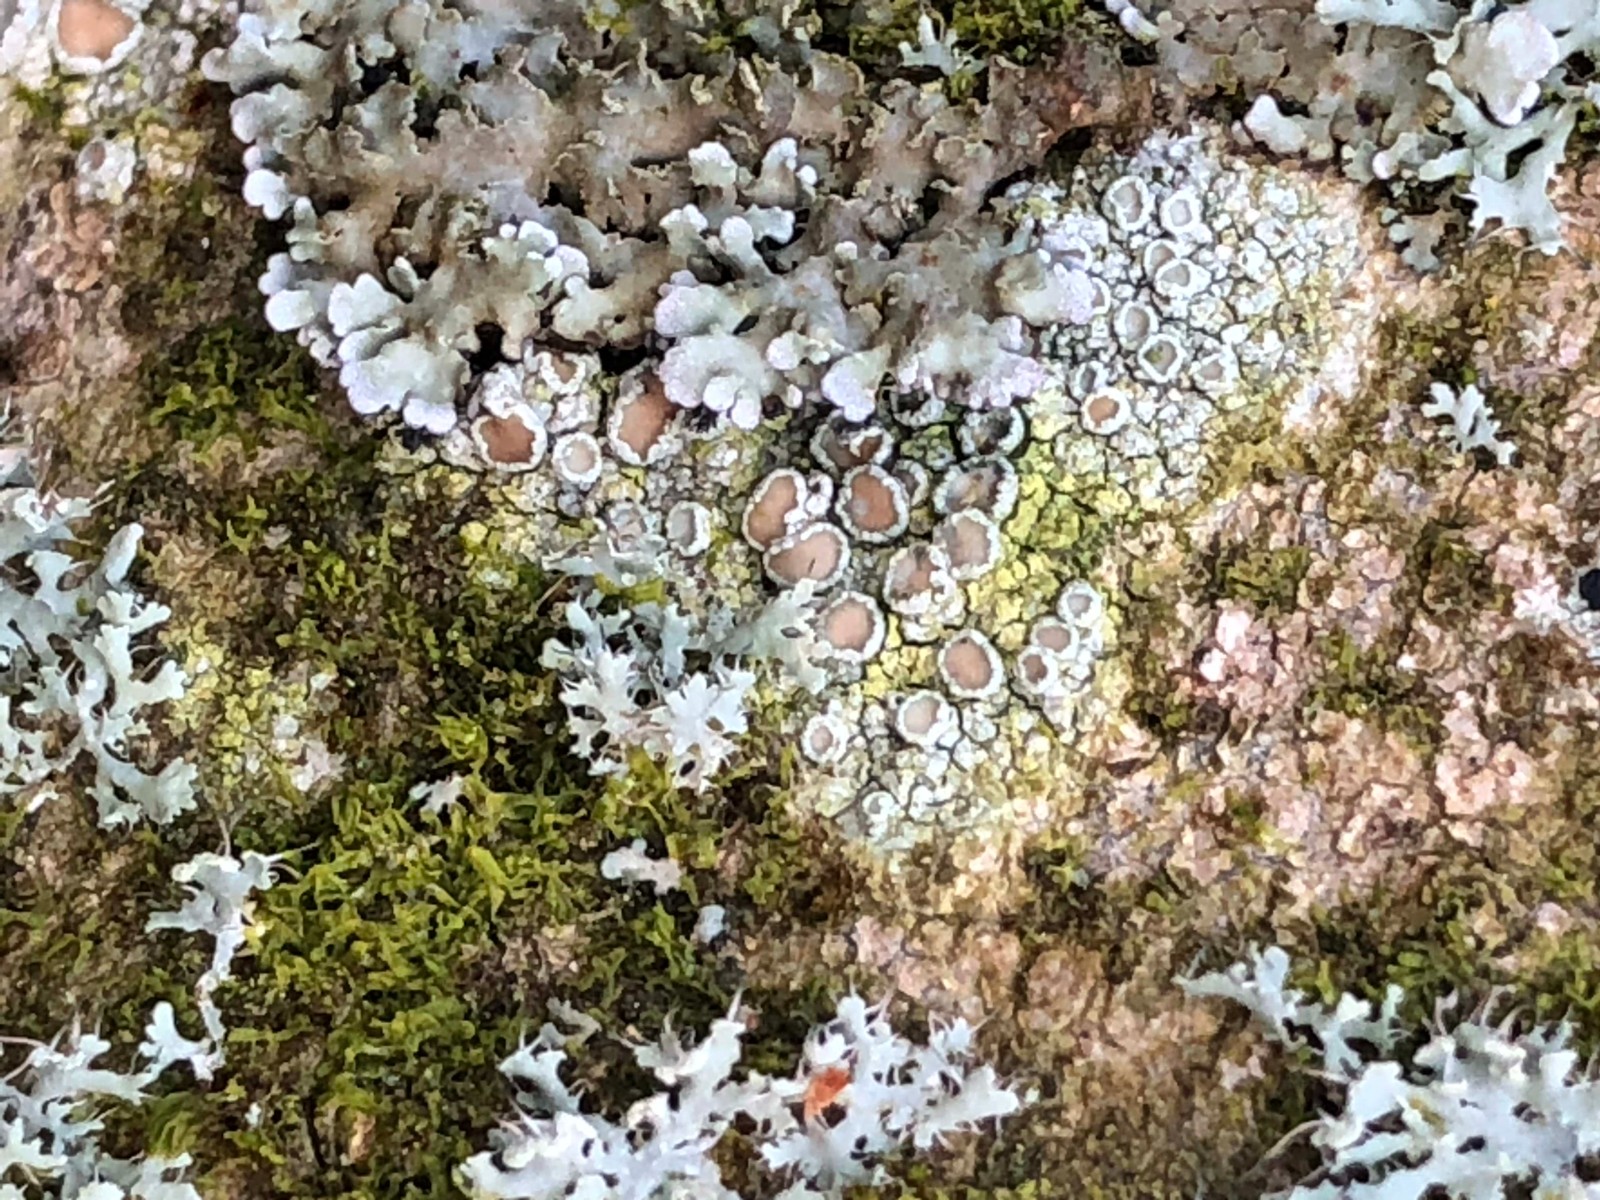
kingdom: Fungi
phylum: Ascomycota
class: Lecanoromycetes
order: Lecanorales
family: Lecanoraceae
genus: Lecanora
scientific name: Lecanora chlarotera
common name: brun kantskivelav
